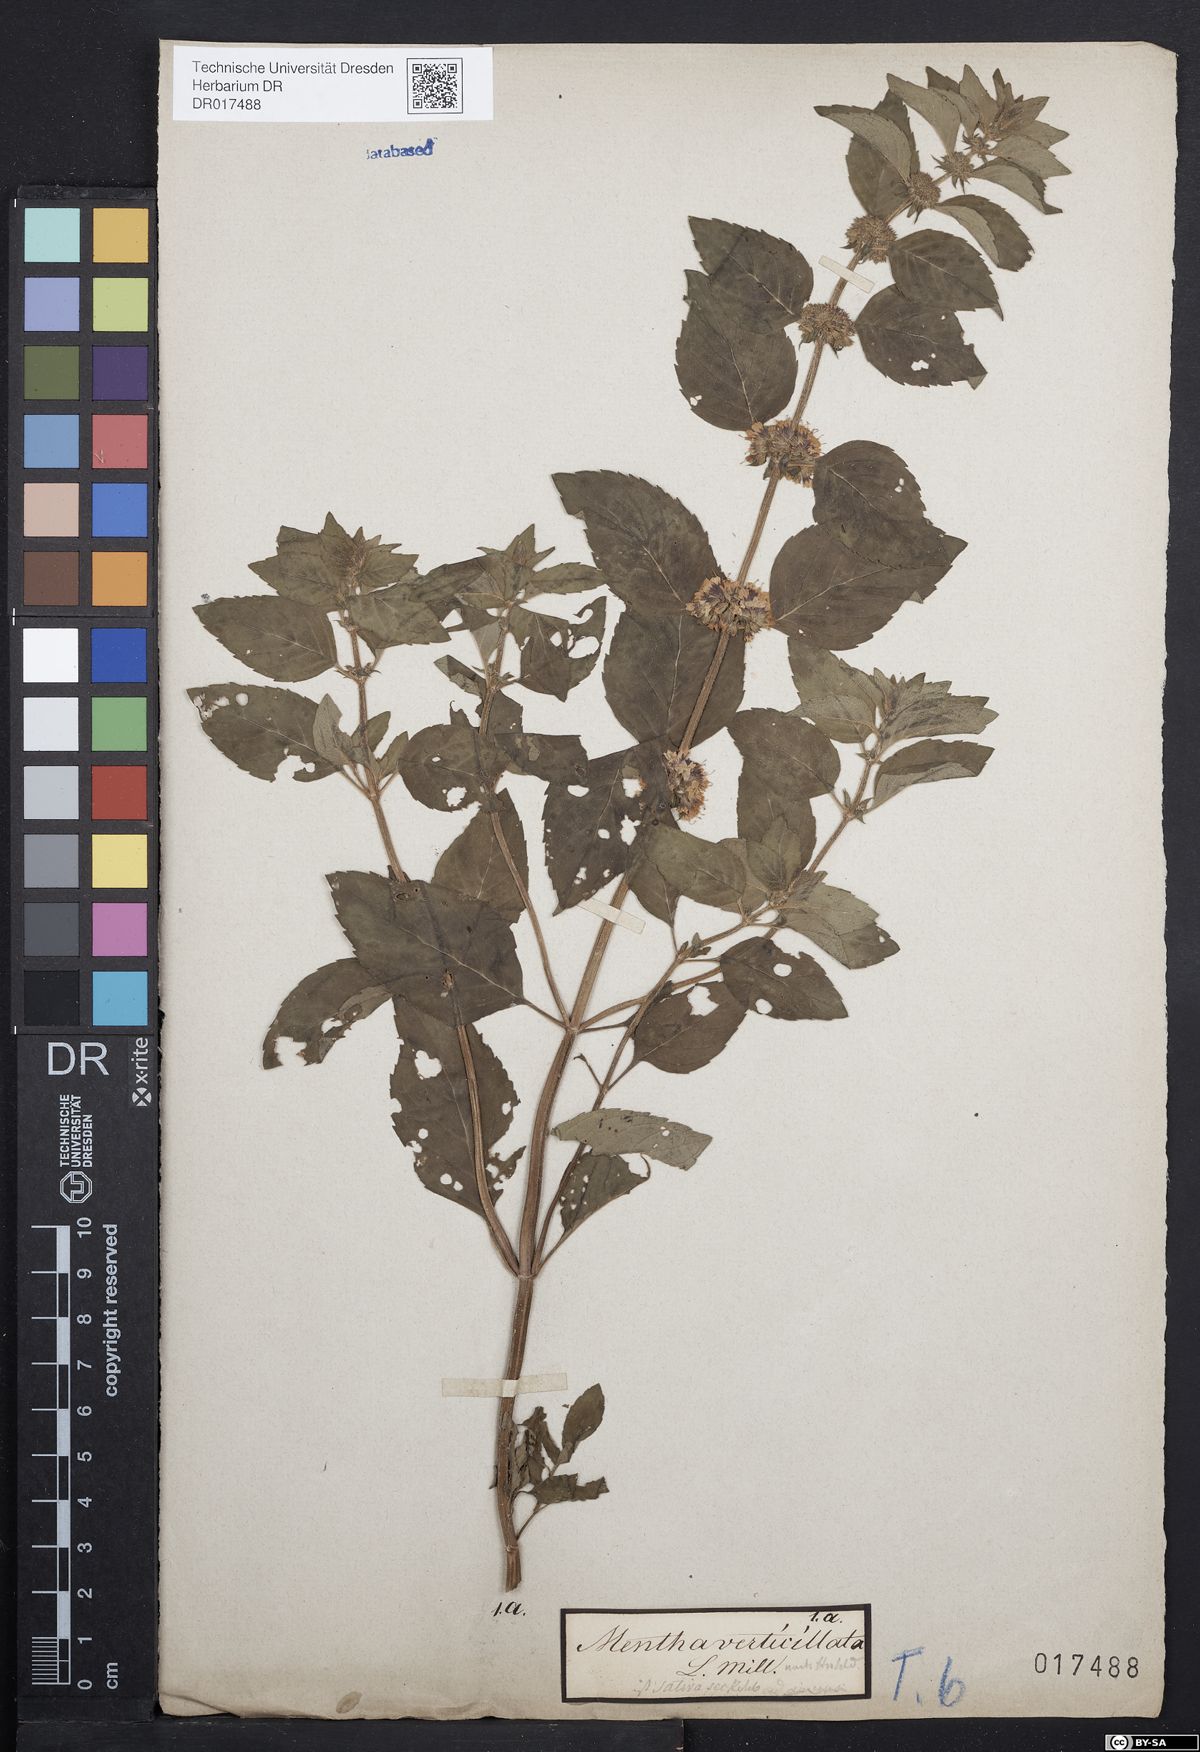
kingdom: Plantae
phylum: Tracheophyta
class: Magnoliopsida
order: Lamiales
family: Lamiaceae
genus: Mentha
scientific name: Mentha verticillata
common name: Mint
